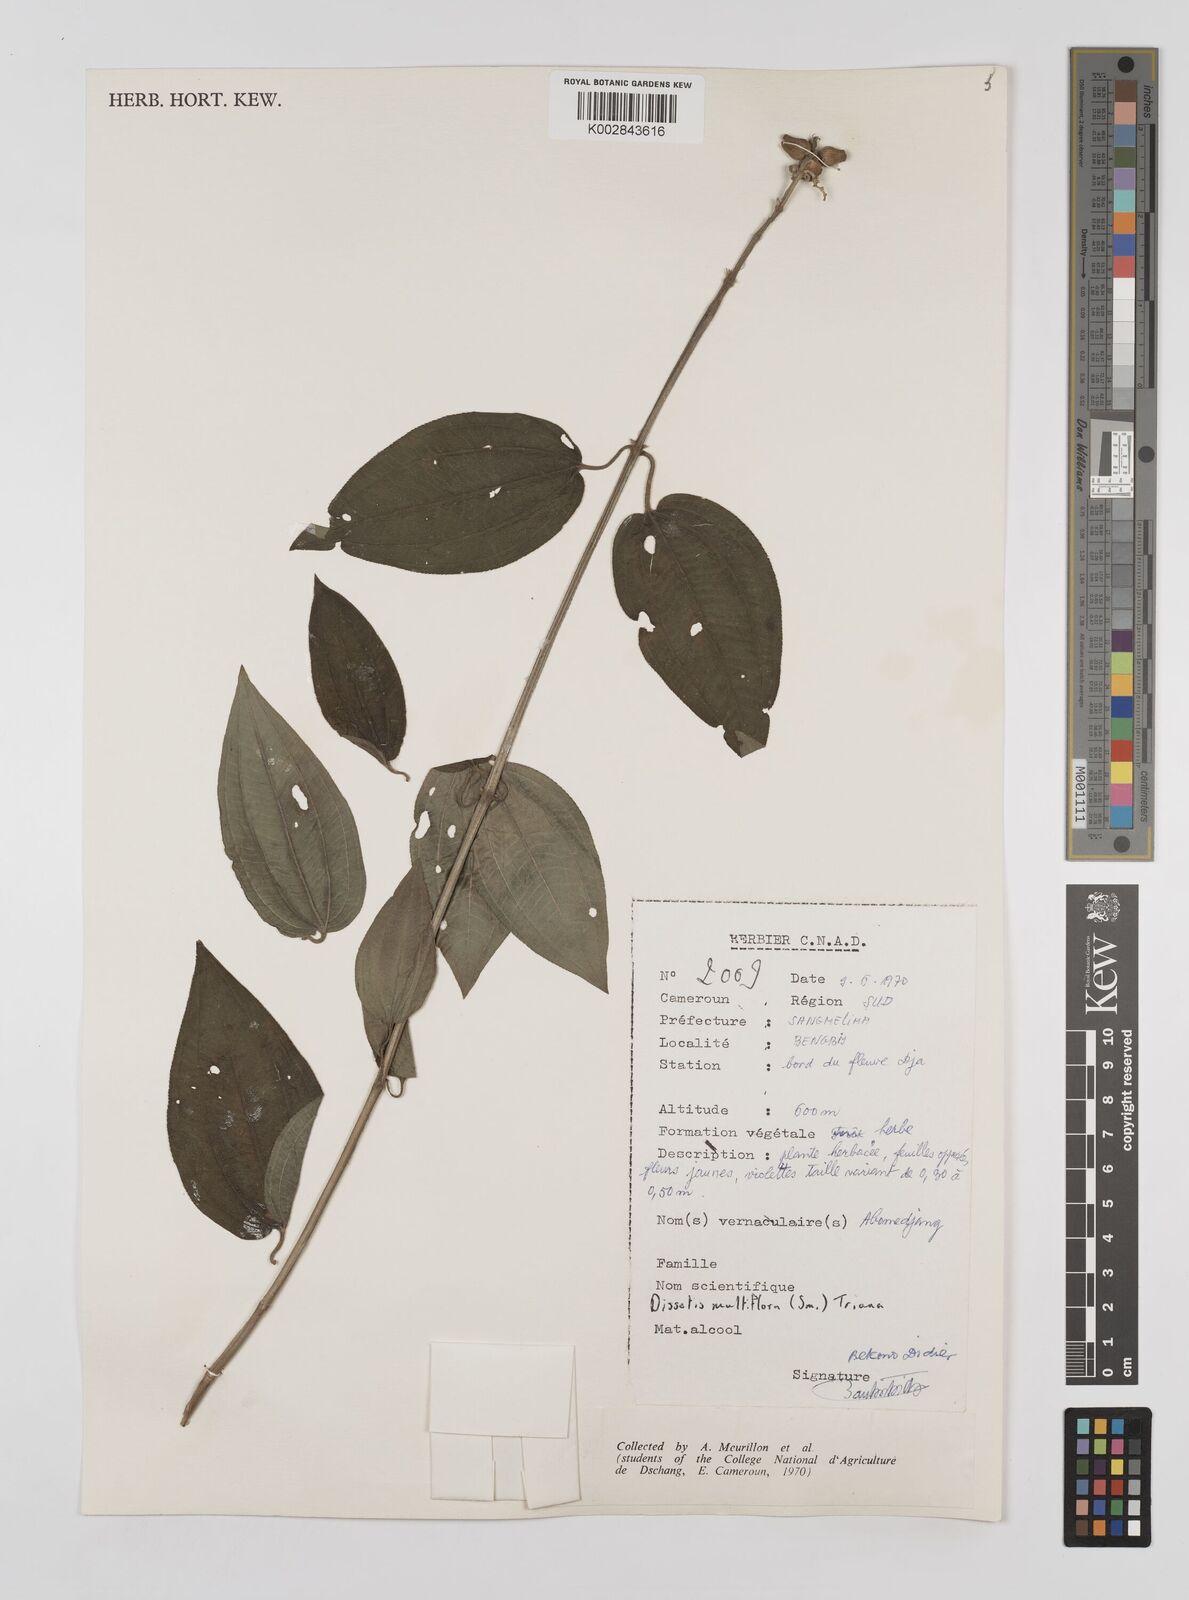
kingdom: Plantae
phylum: Tracheophyta
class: Magnoliopsida
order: Myrtales
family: Melastomataceae
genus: Dupineta
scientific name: Dupineta multiflora
